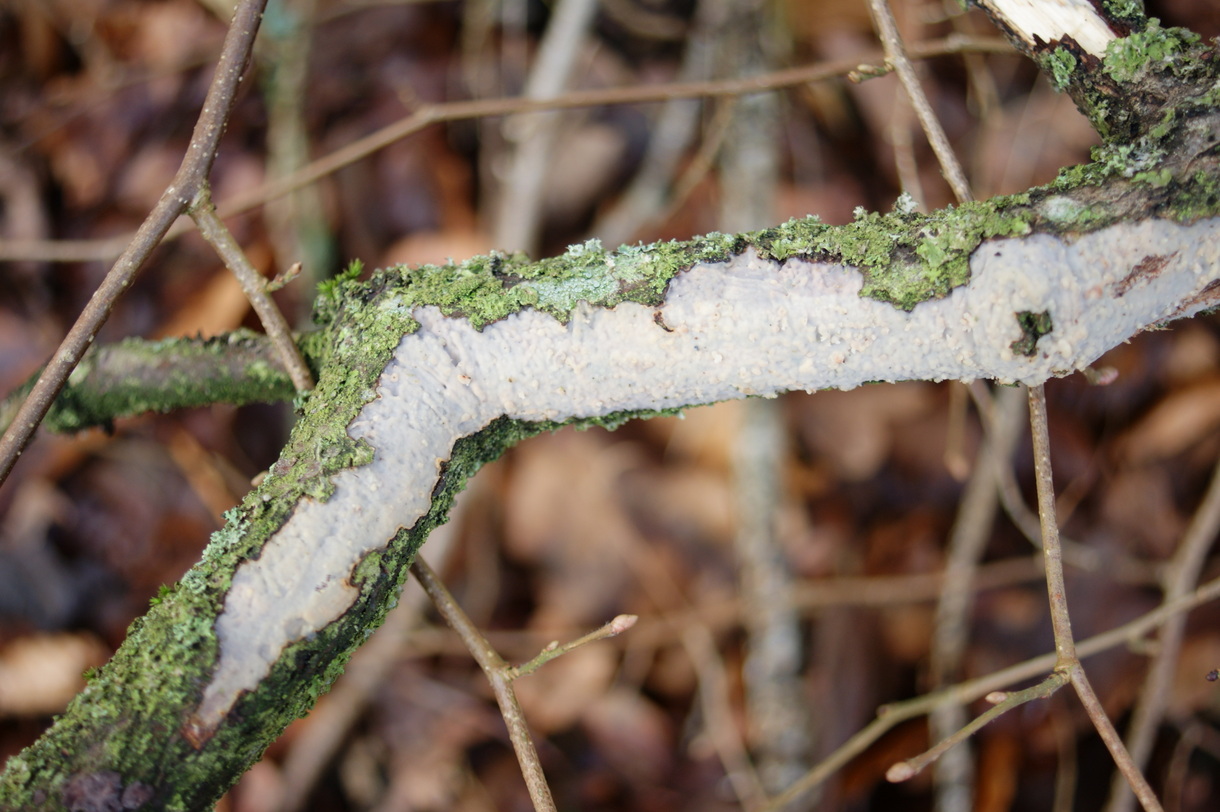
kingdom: Fungi
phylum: Basidiomycota
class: Agaricomycetes
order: Corticiales
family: Vuilleminiaceae
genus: Vuilleminia
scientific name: Vuilleminia comedens
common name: almindelig barksprænger
